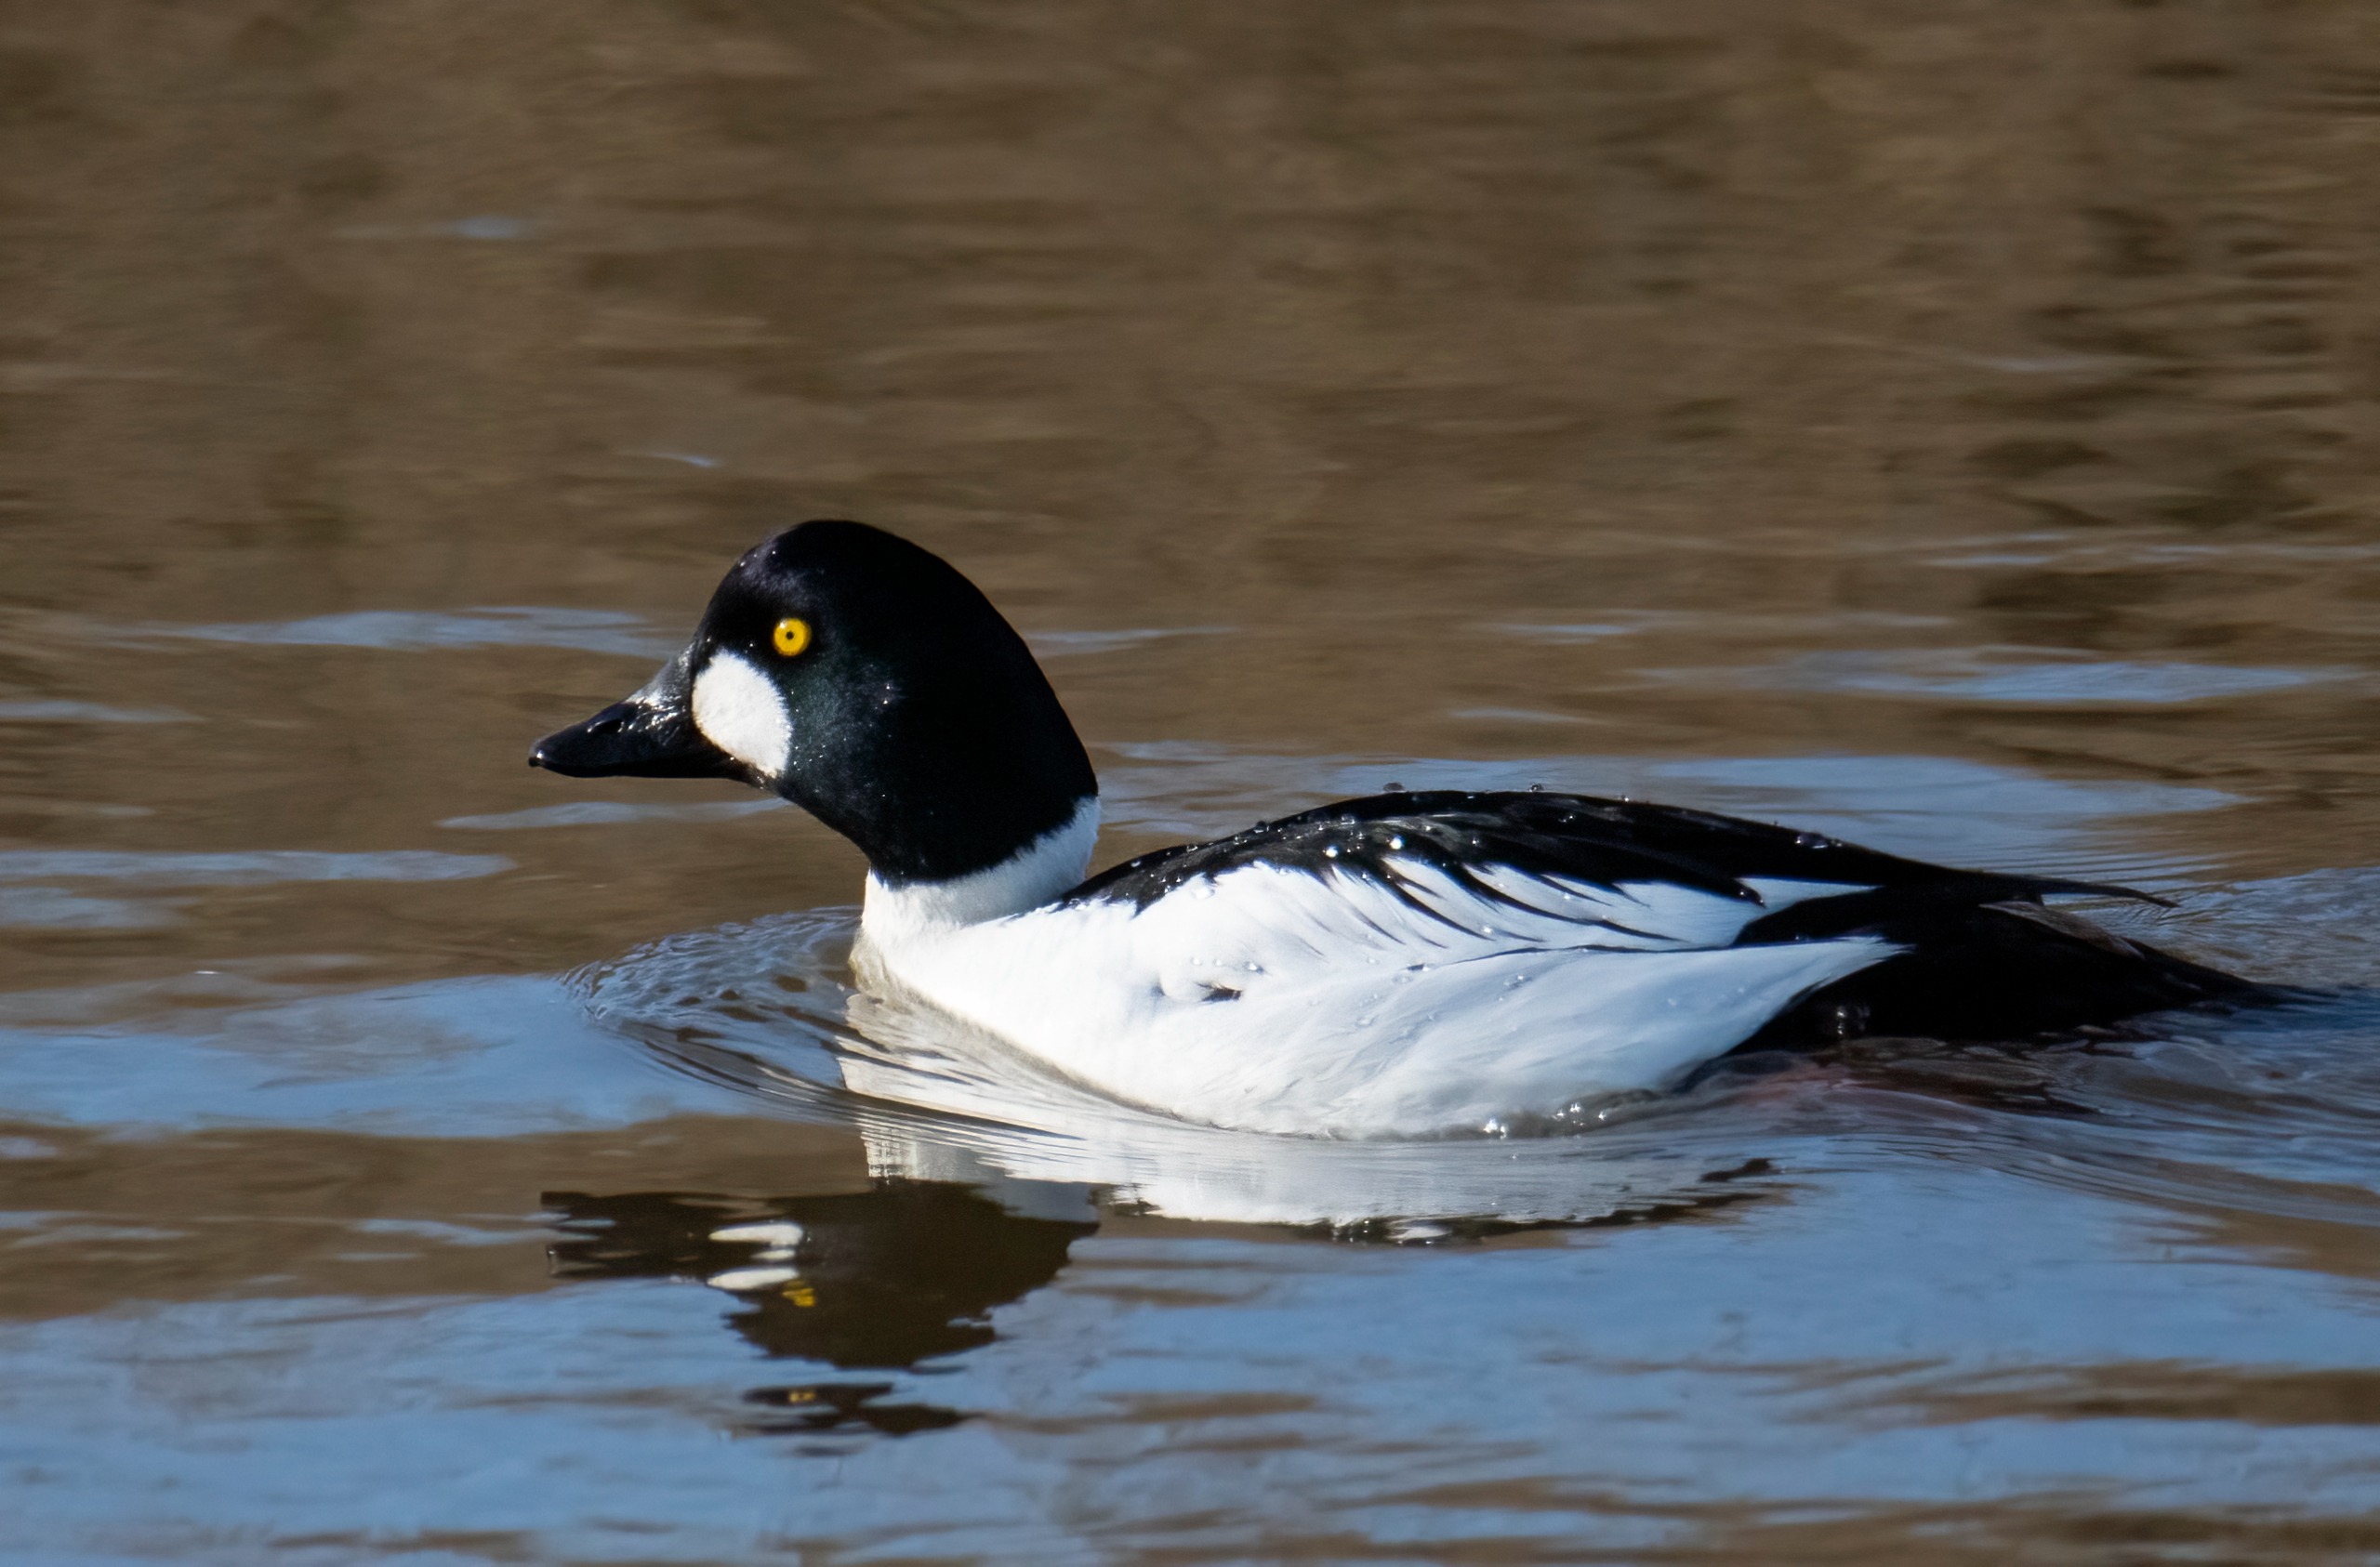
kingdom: Animalia
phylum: Chordata
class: Aves
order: Anseriformes
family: Anatidae
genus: Bucephala
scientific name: Bucephala clangula
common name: Hvinand
